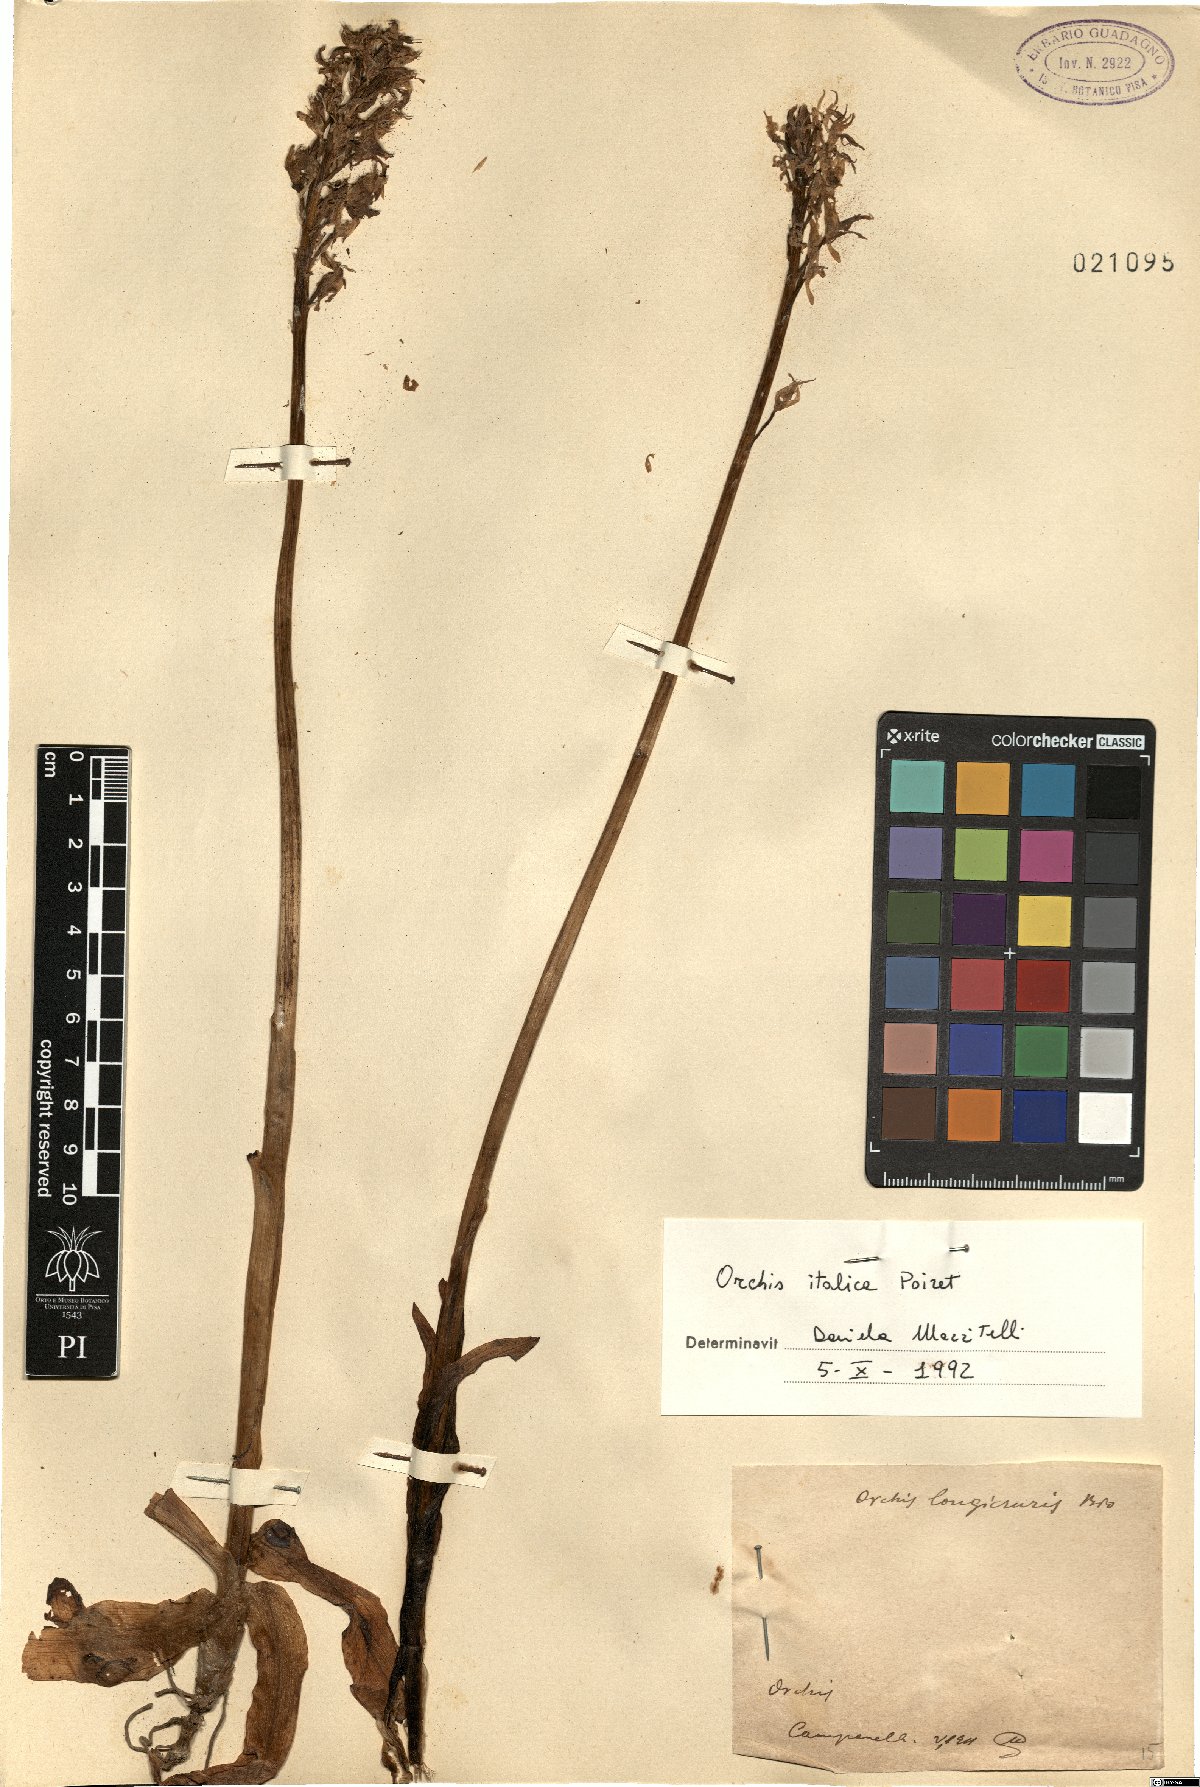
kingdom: Plantae
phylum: Tracheophyta
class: Liliopsida
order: Asparagales
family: Orchidaceae
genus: Orchis
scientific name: Orchis italica
